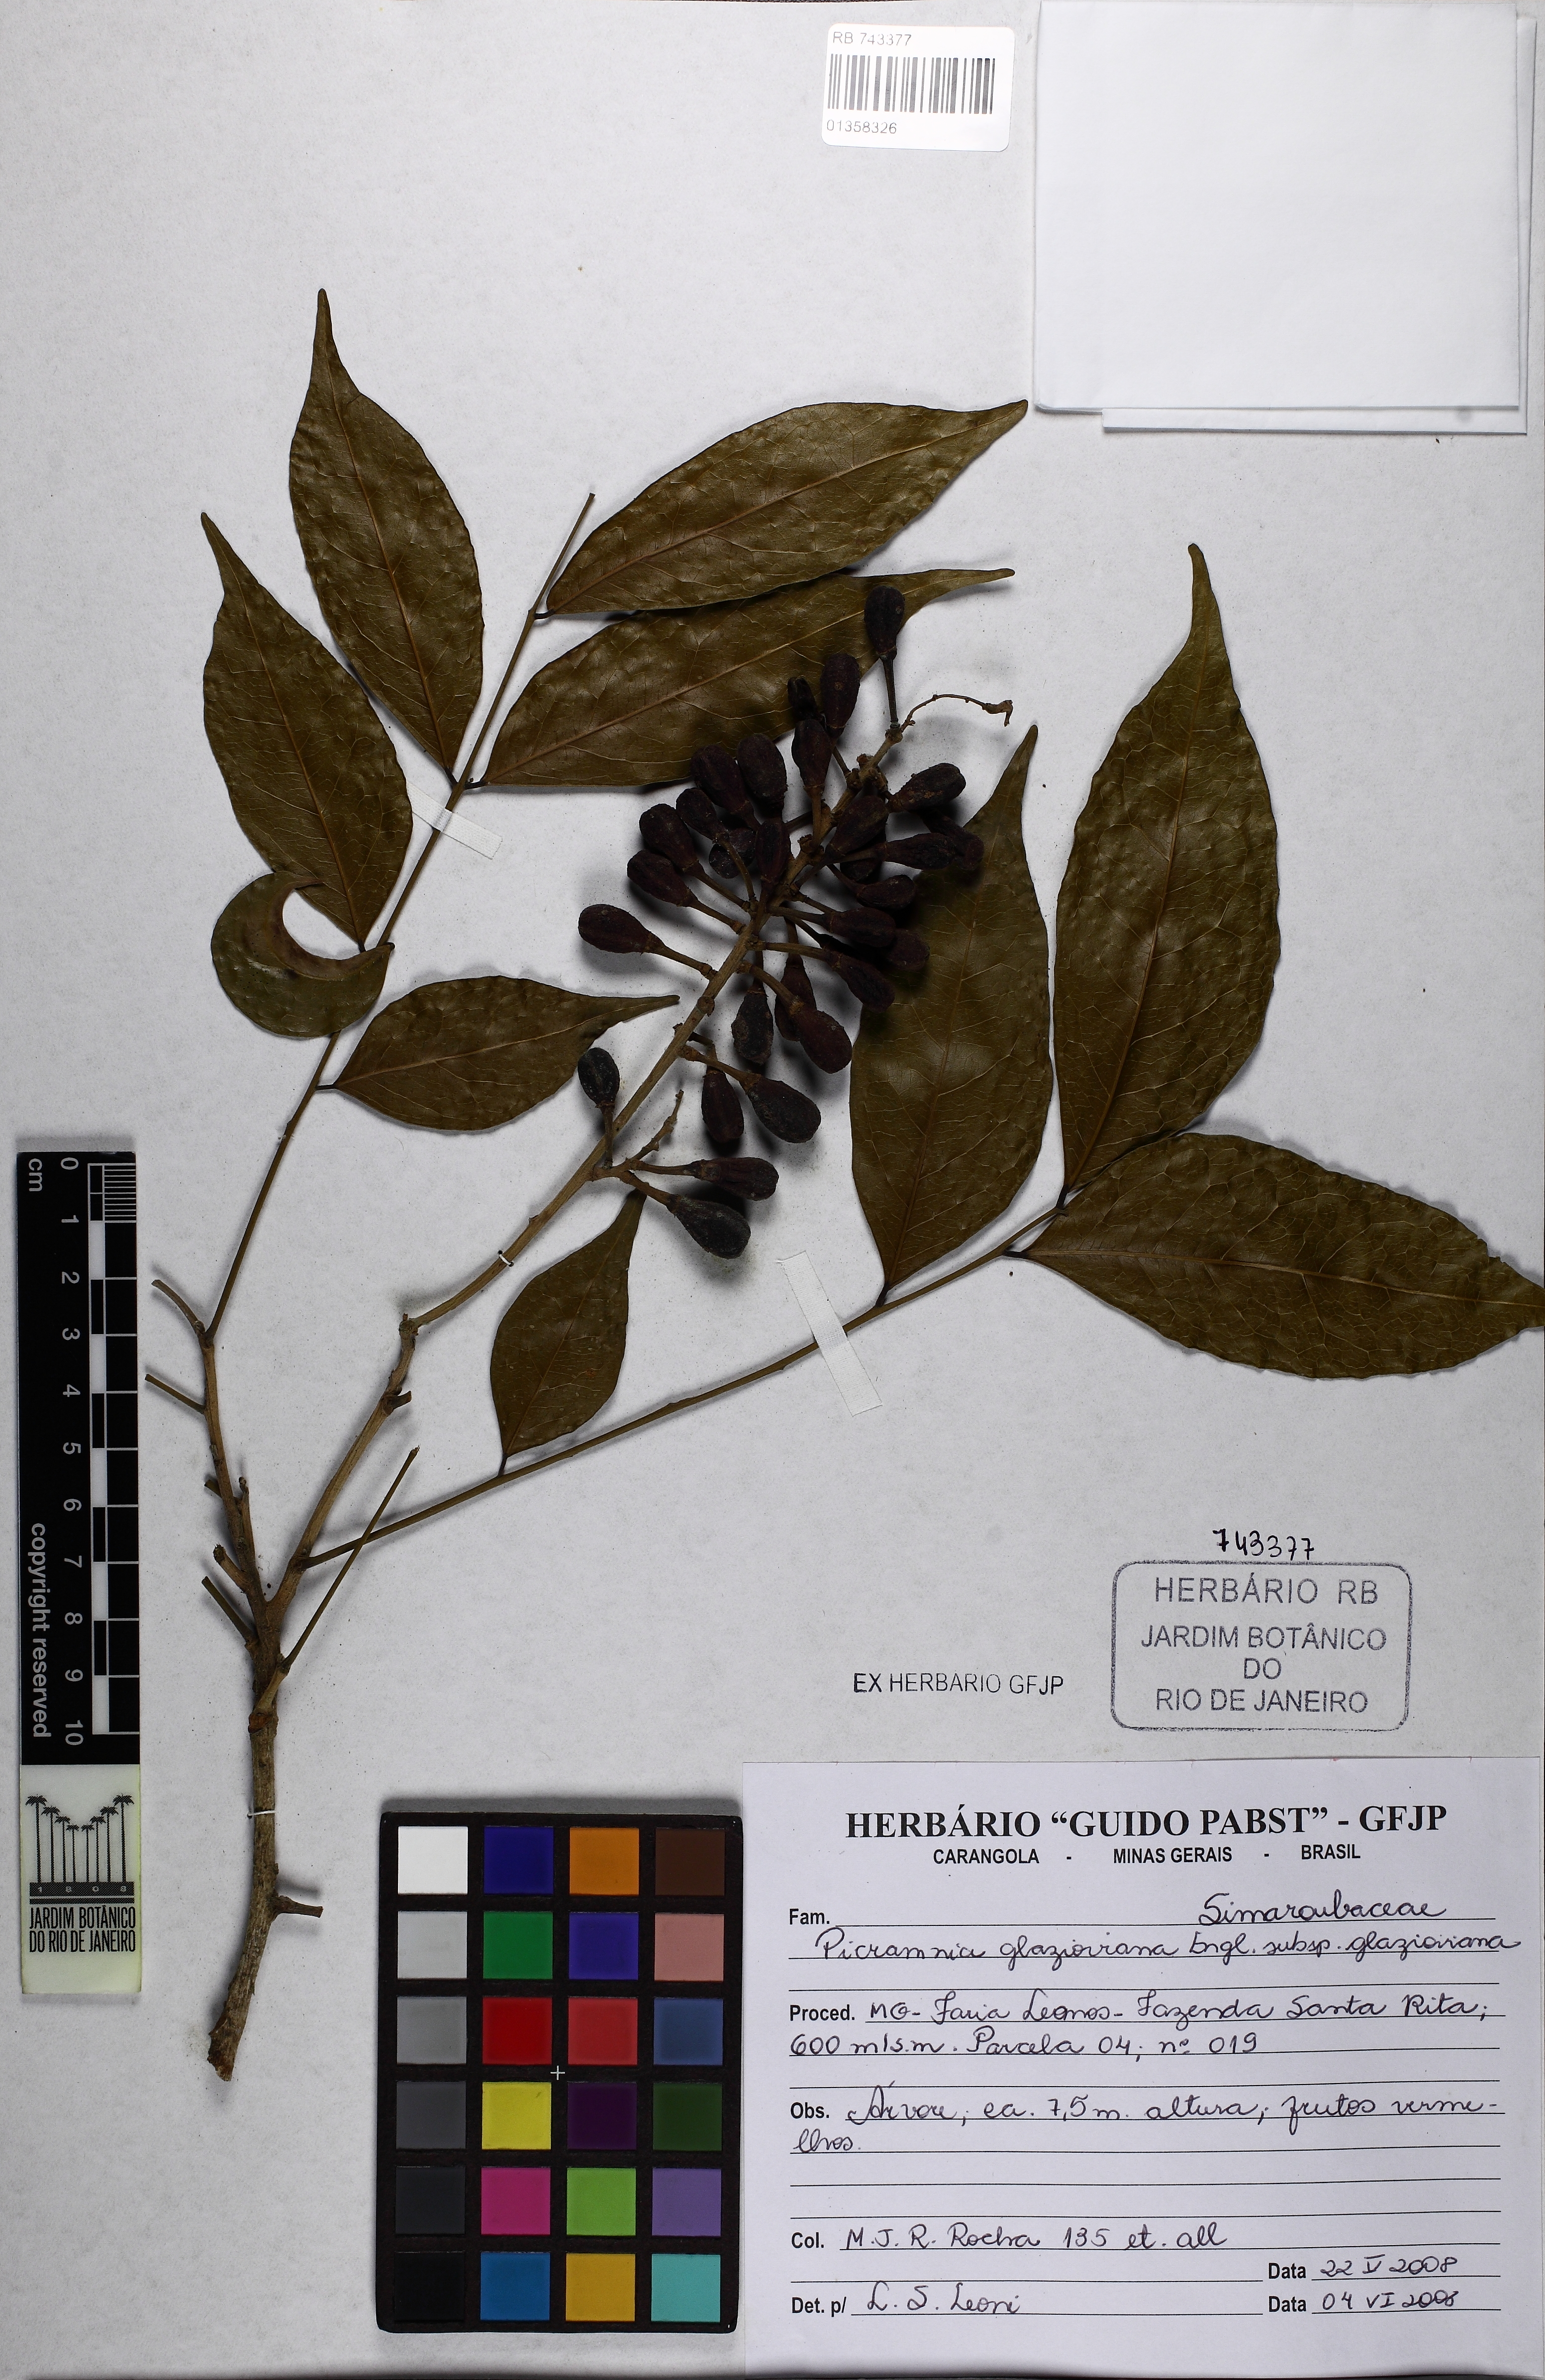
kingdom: Plantae
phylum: Tracheophyta
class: Magnoliopsida
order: Picramniales
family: Picramniaceae
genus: Picramnia
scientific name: Picramnia glazioviana
